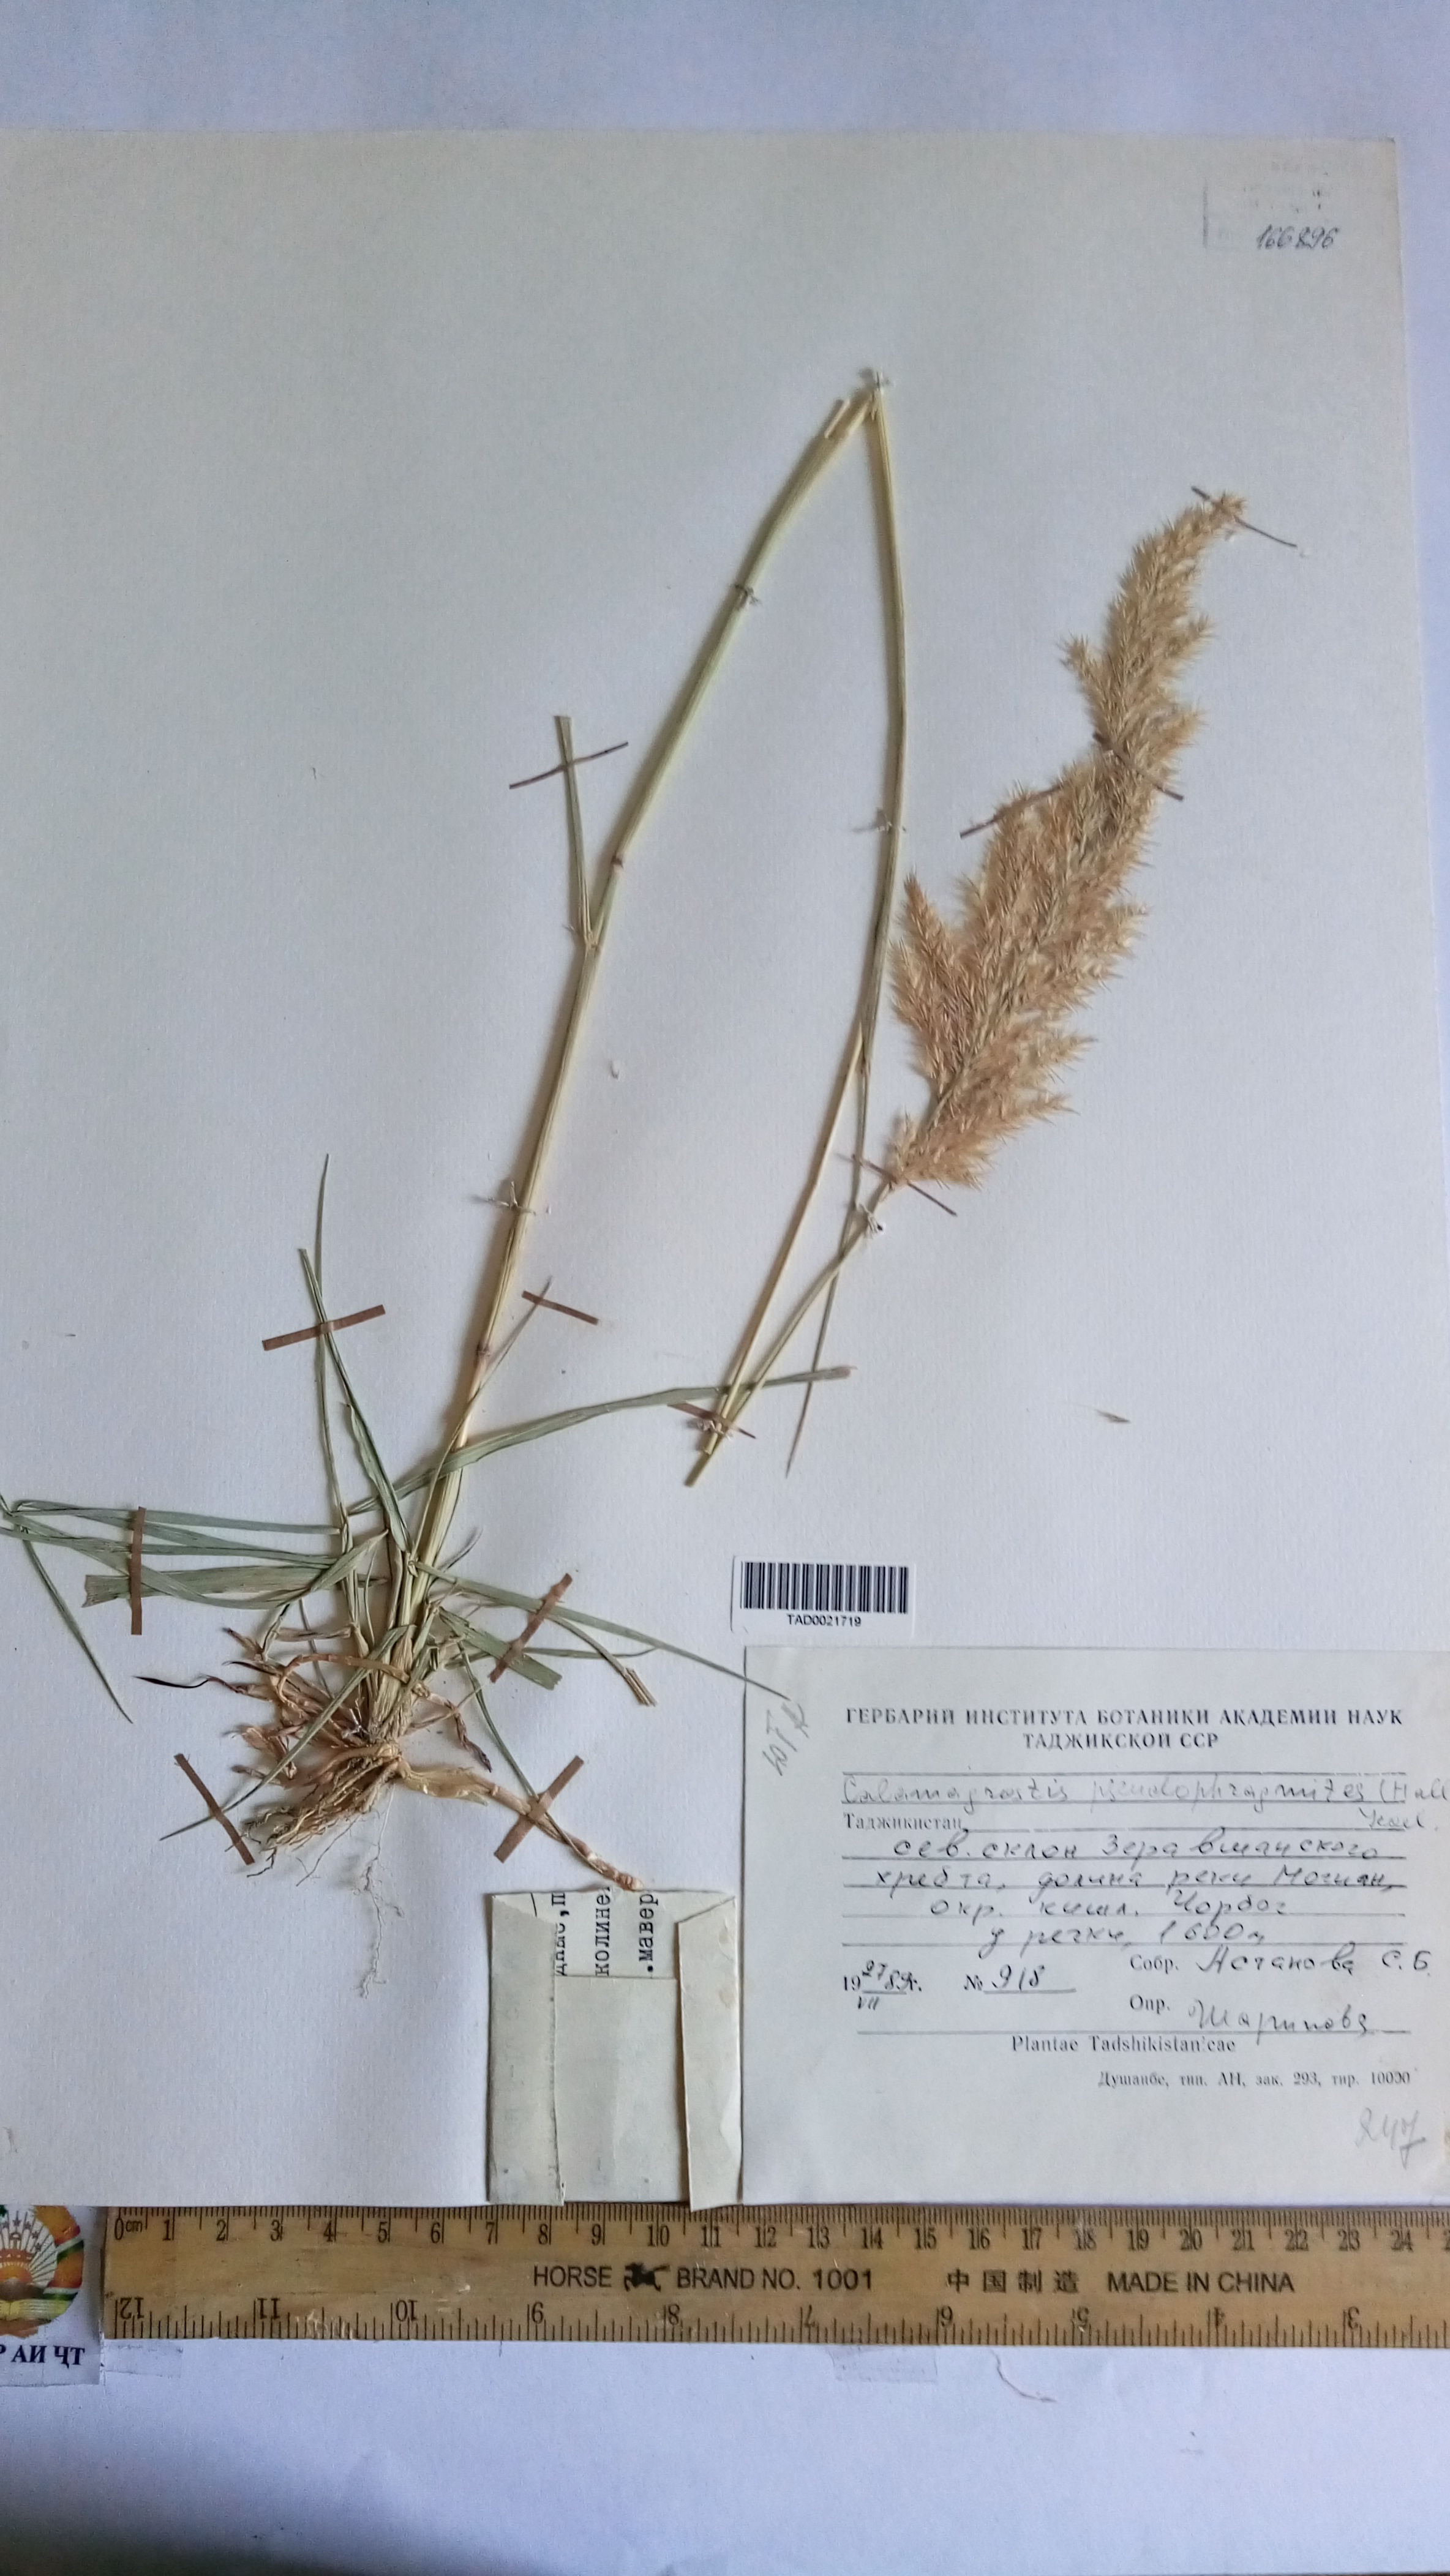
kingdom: Plantae
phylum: Tracheophyta
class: Liliopsida
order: Poales
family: Poaceae
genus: Calamagrostis
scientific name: Calamagrostis macrolepis
